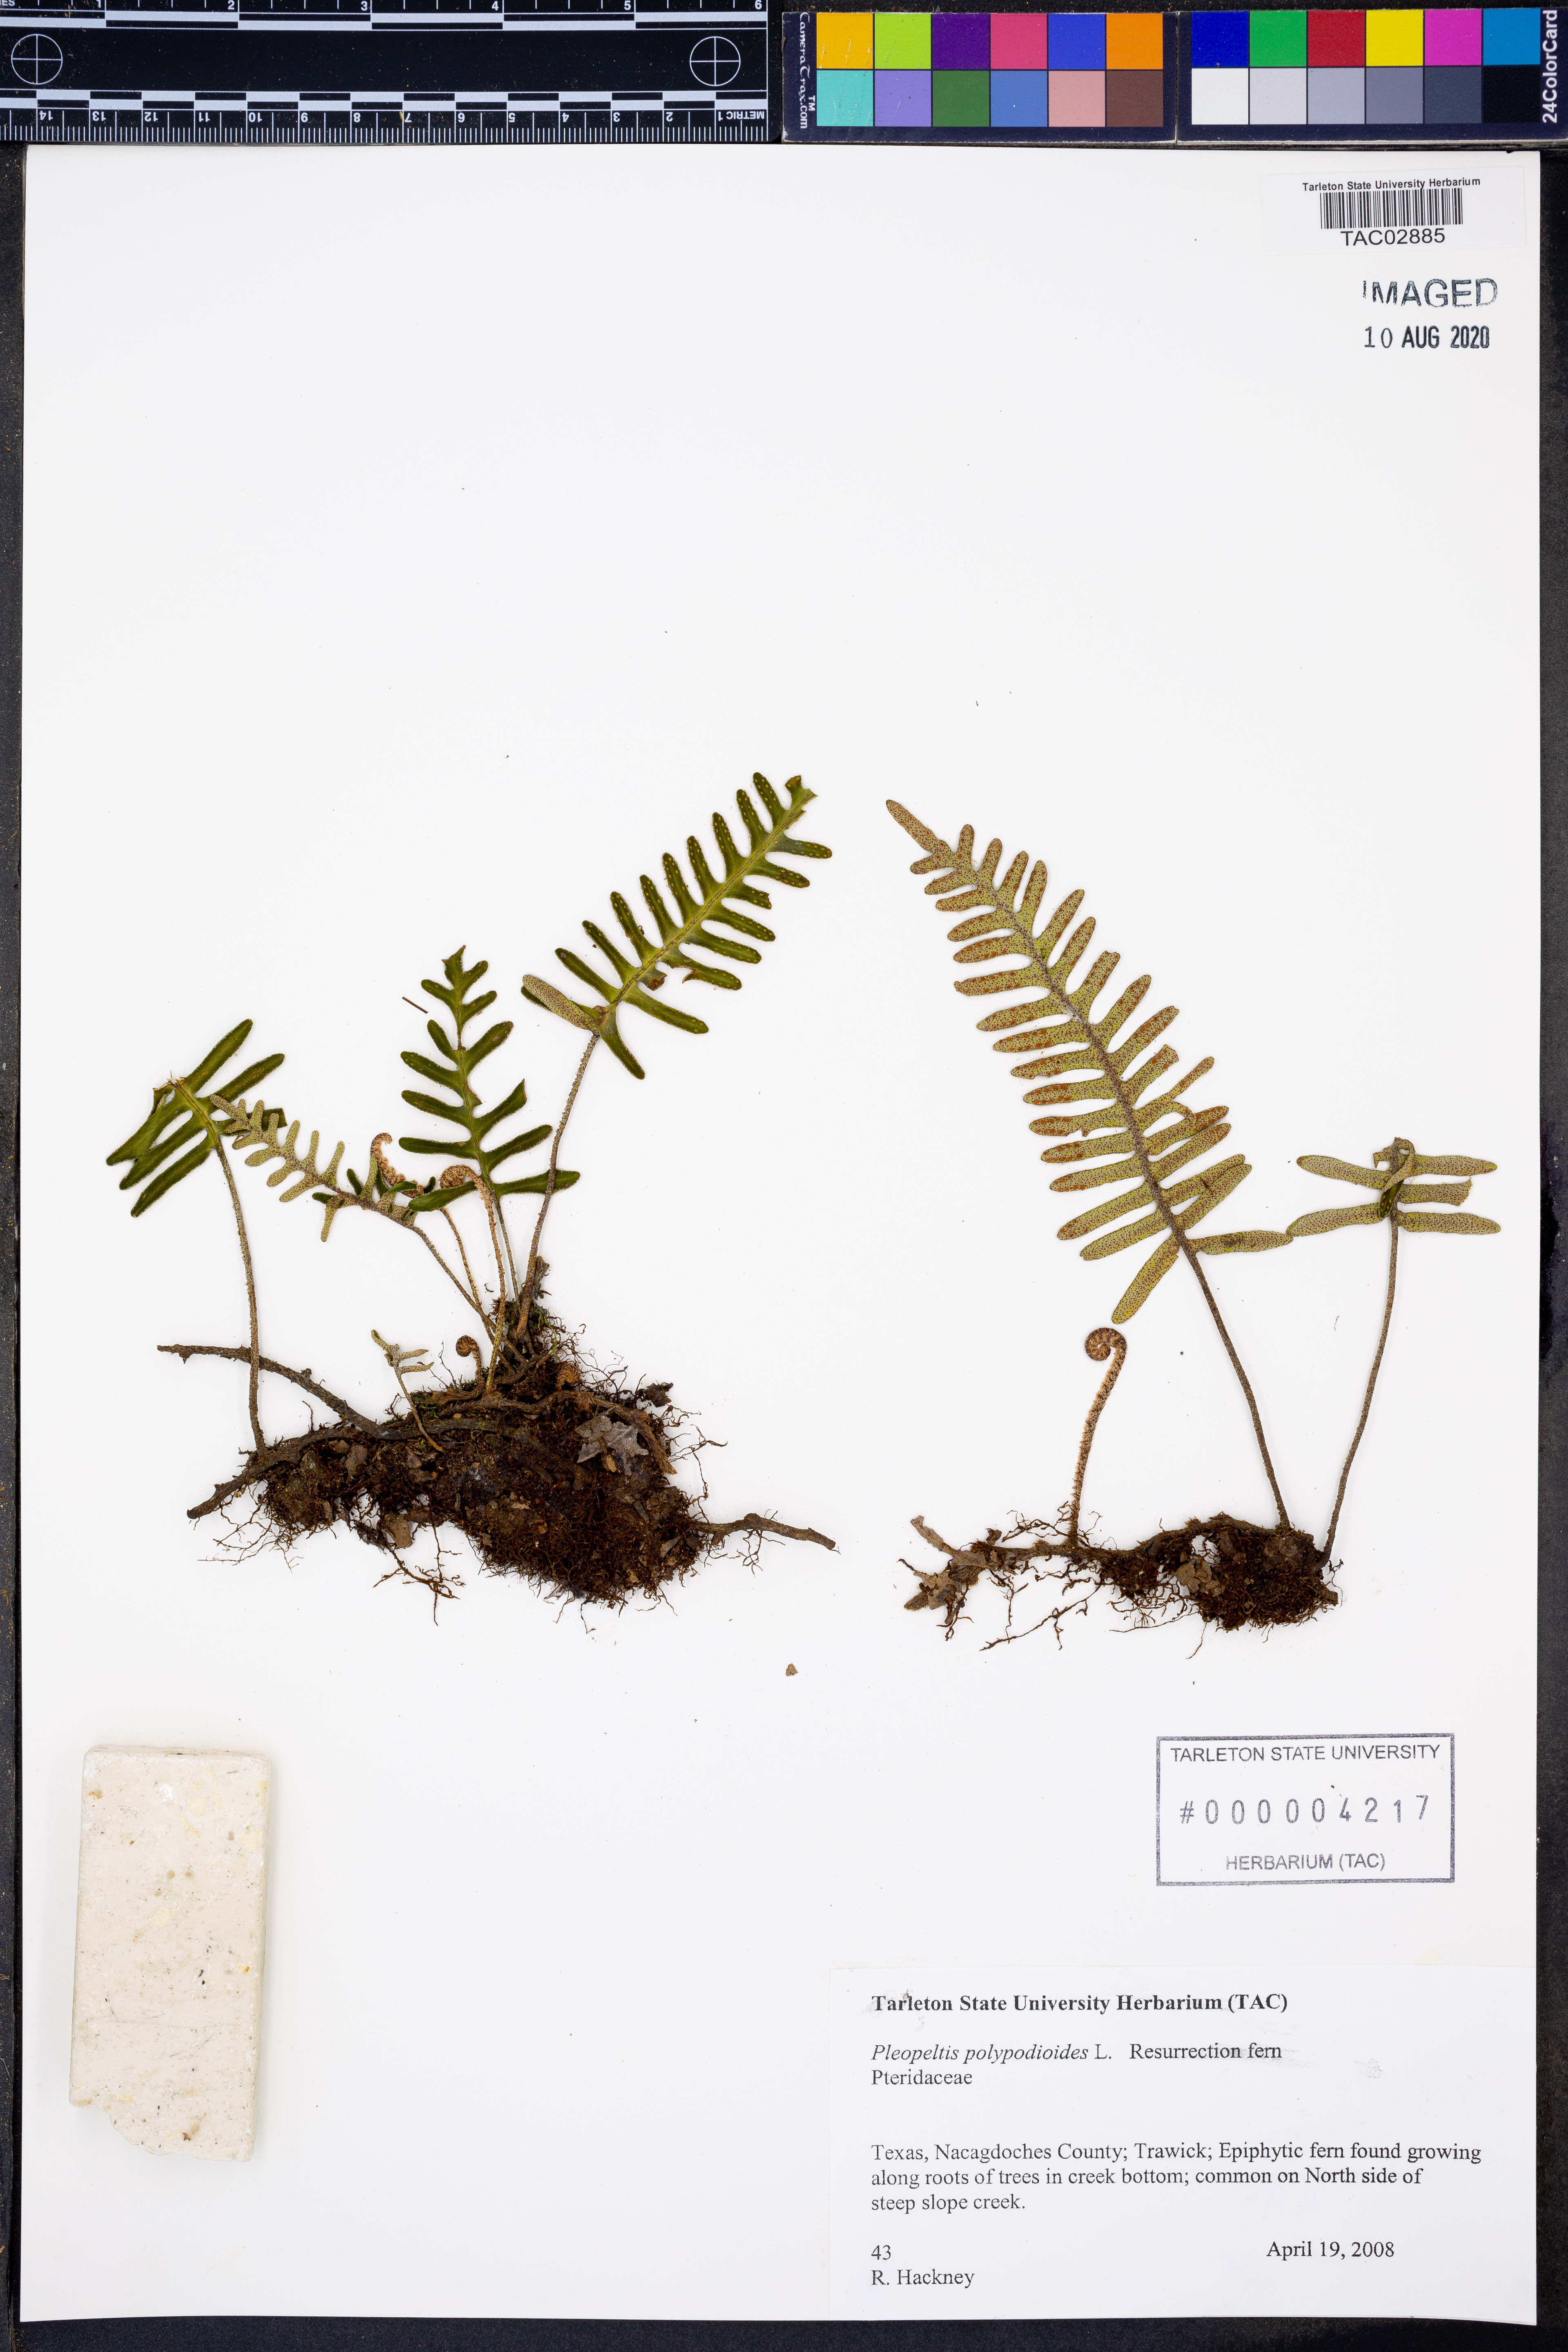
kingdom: Plantae
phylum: Tracheophyta
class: Polypodiopsida
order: Polypodiales
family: Polypodiaceae
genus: Pleopeltis
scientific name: Pleopeltis polypodioides
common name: Resurrection fern
